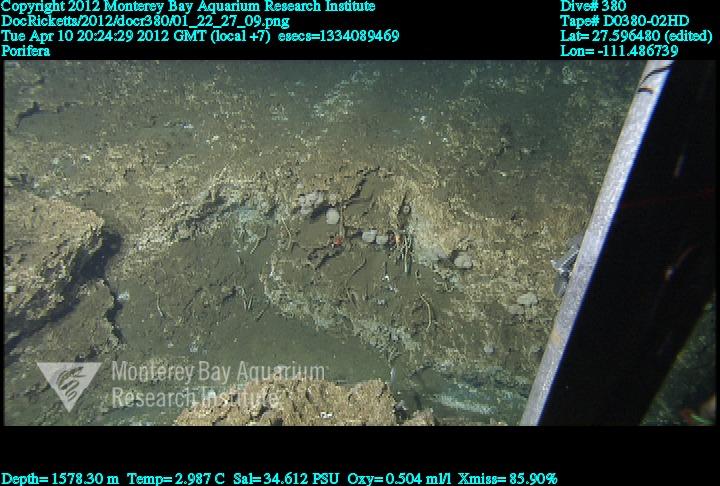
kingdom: Animalia
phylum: Porifera
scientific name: Porifera
